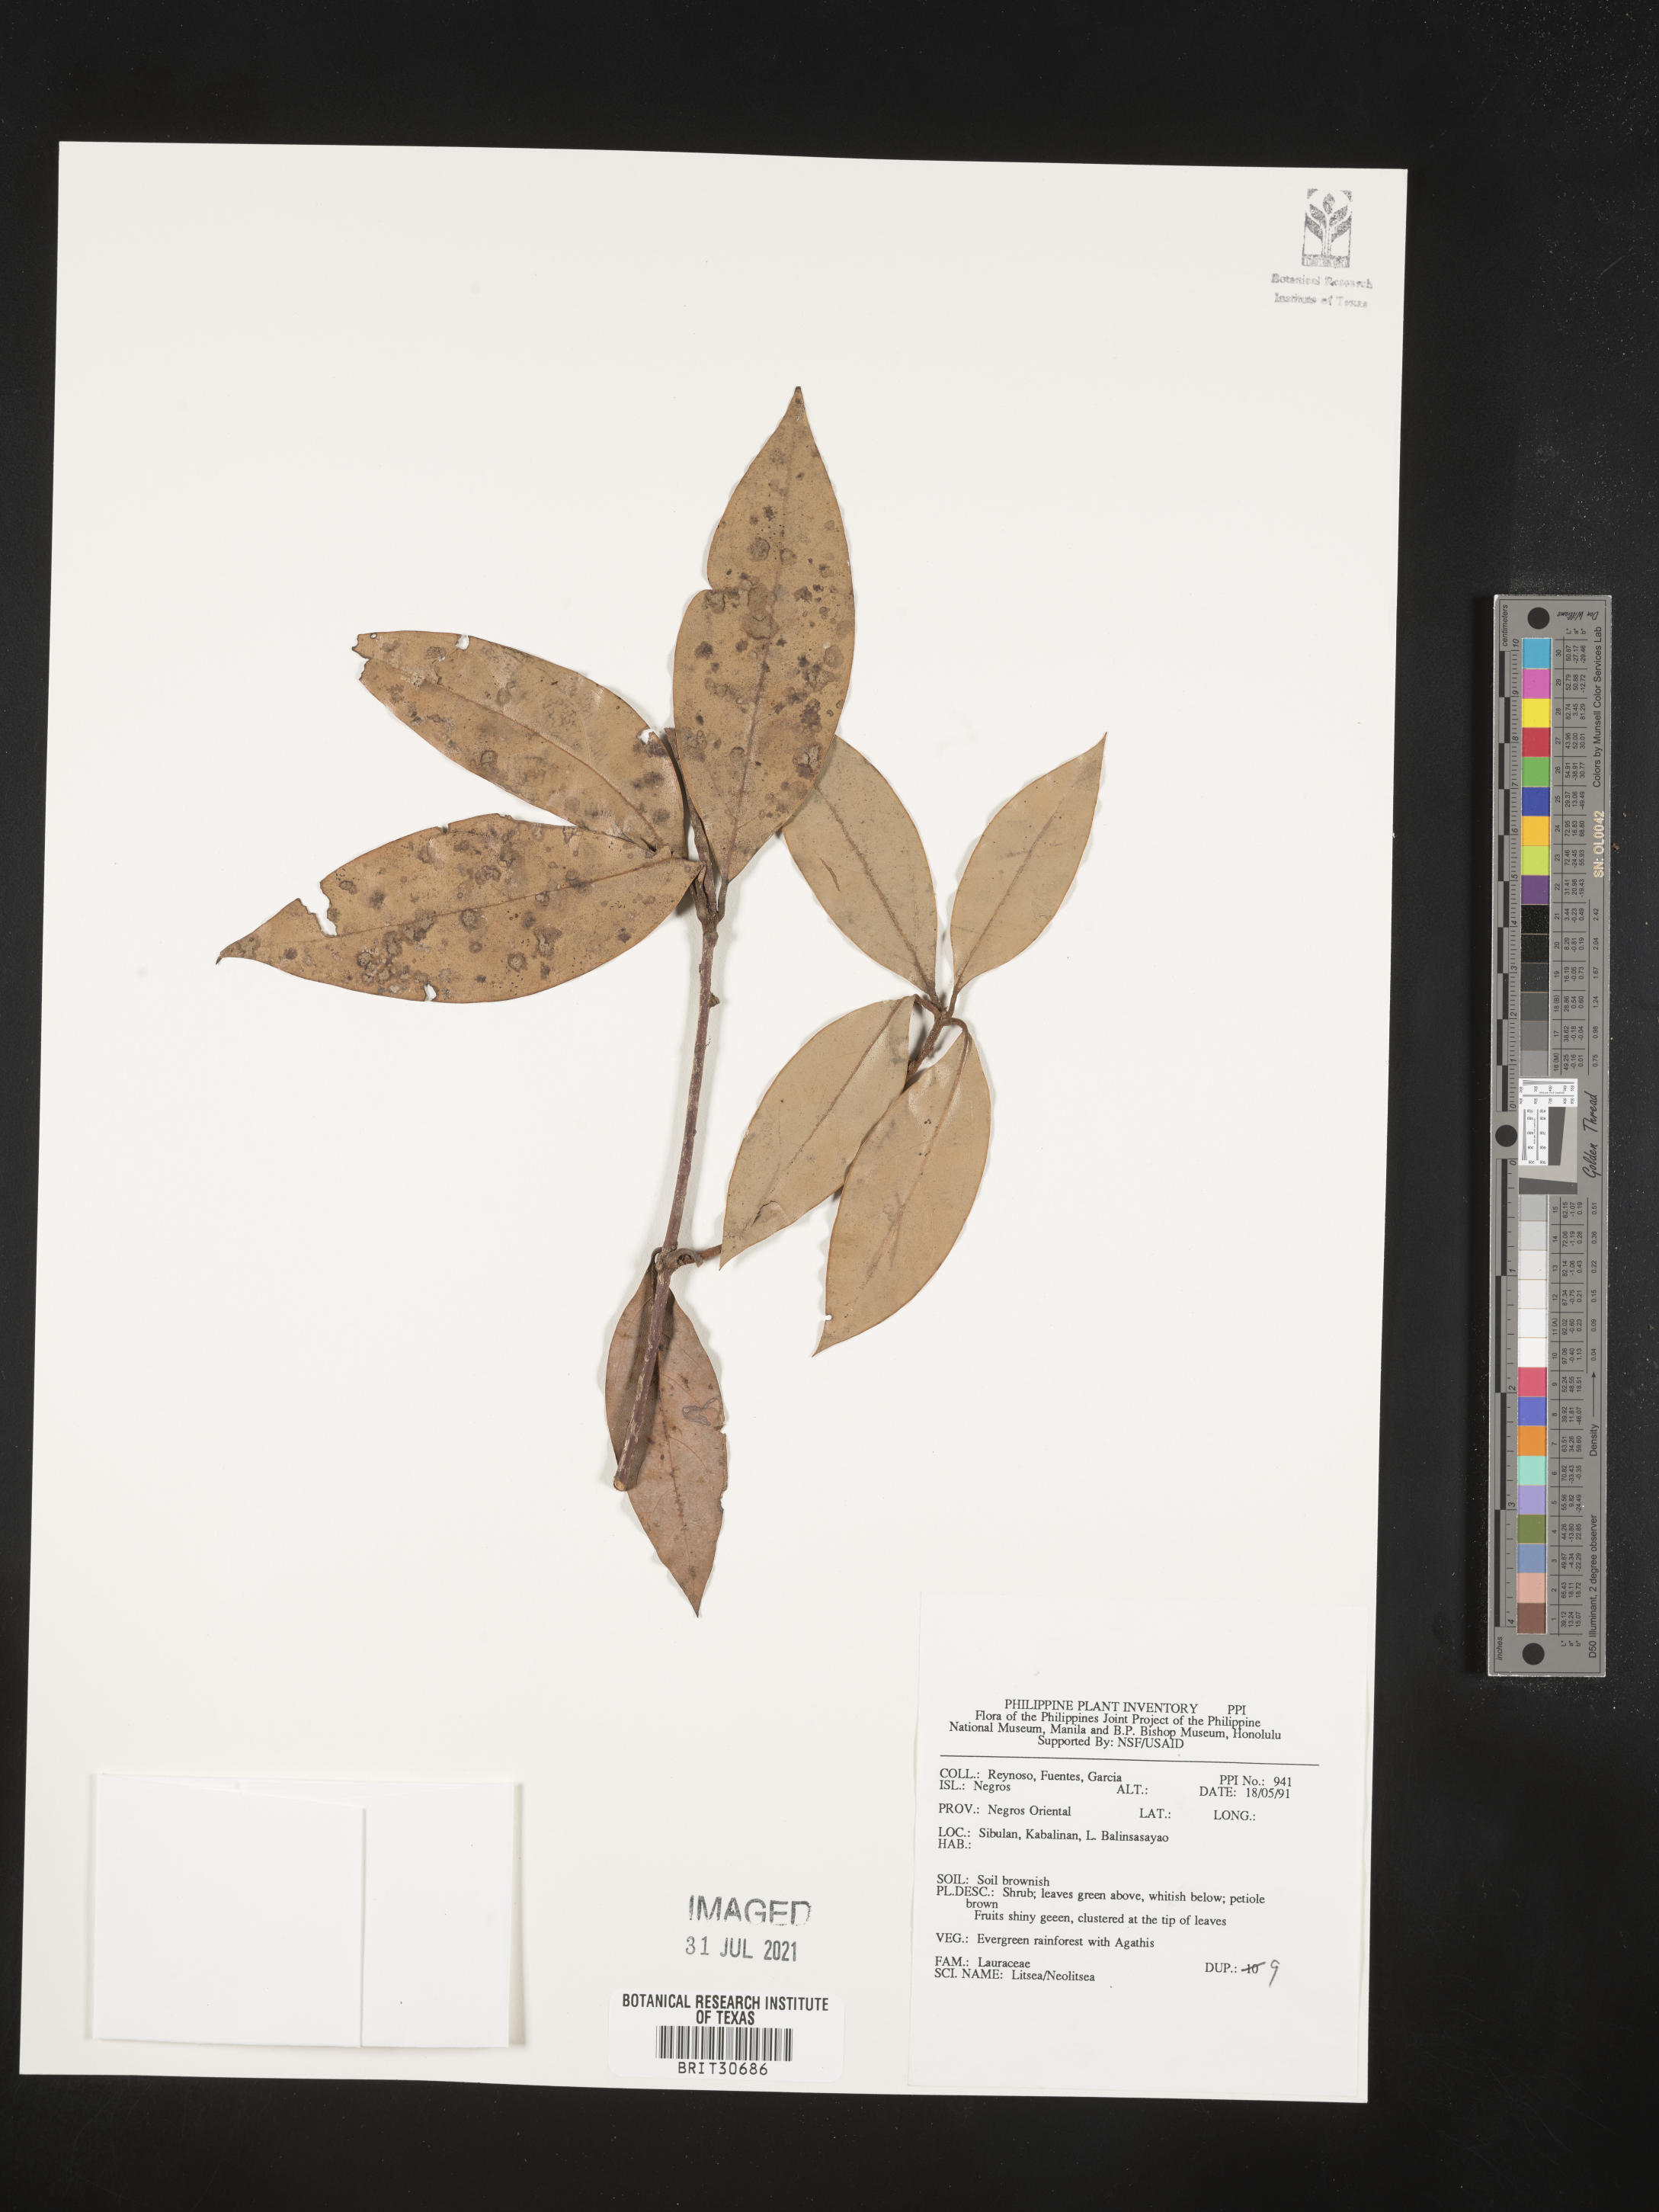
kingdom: Plantae
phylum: Tracheophyta
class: Magnoliopsida
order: Laurales
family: Lauraceae
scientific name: Lauraceae
